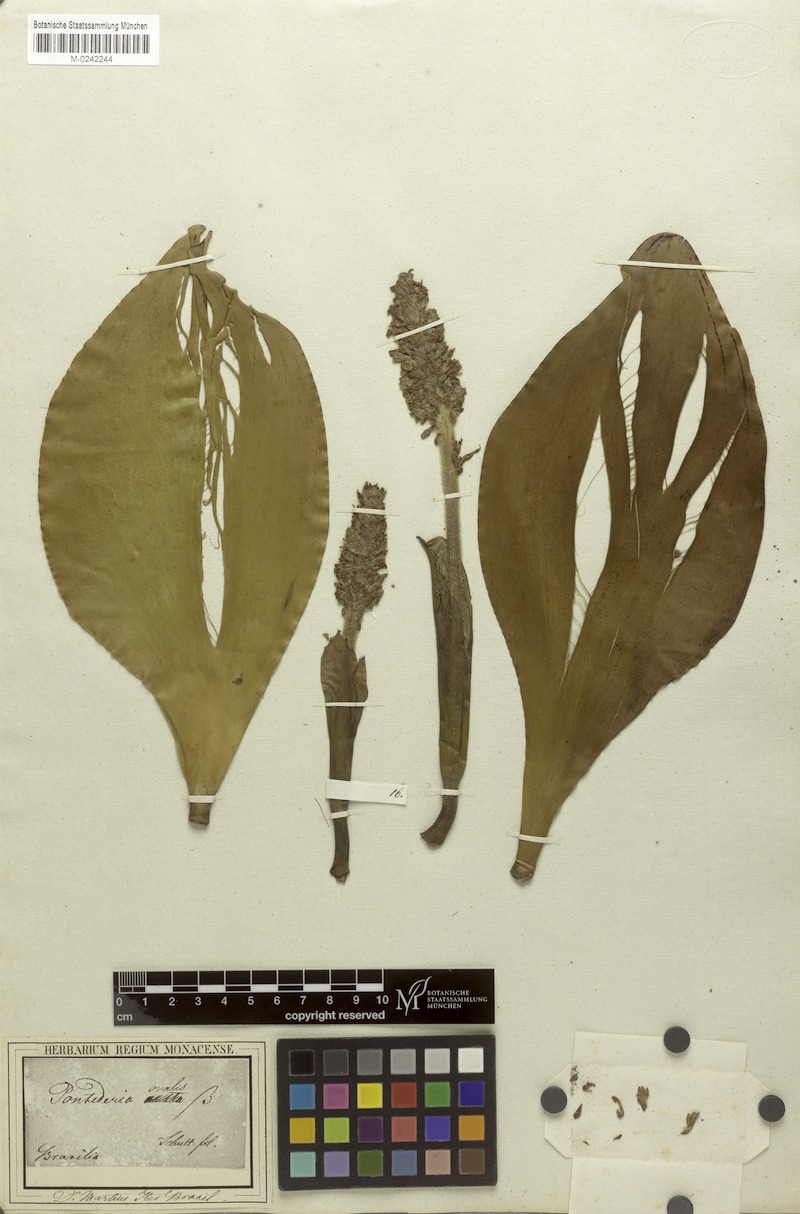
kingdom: Plantae
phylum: Tracheophyta
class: Liliopsida
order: Commelinales
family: Pontederiaceae
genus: Pontederia
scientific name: Pontederia
